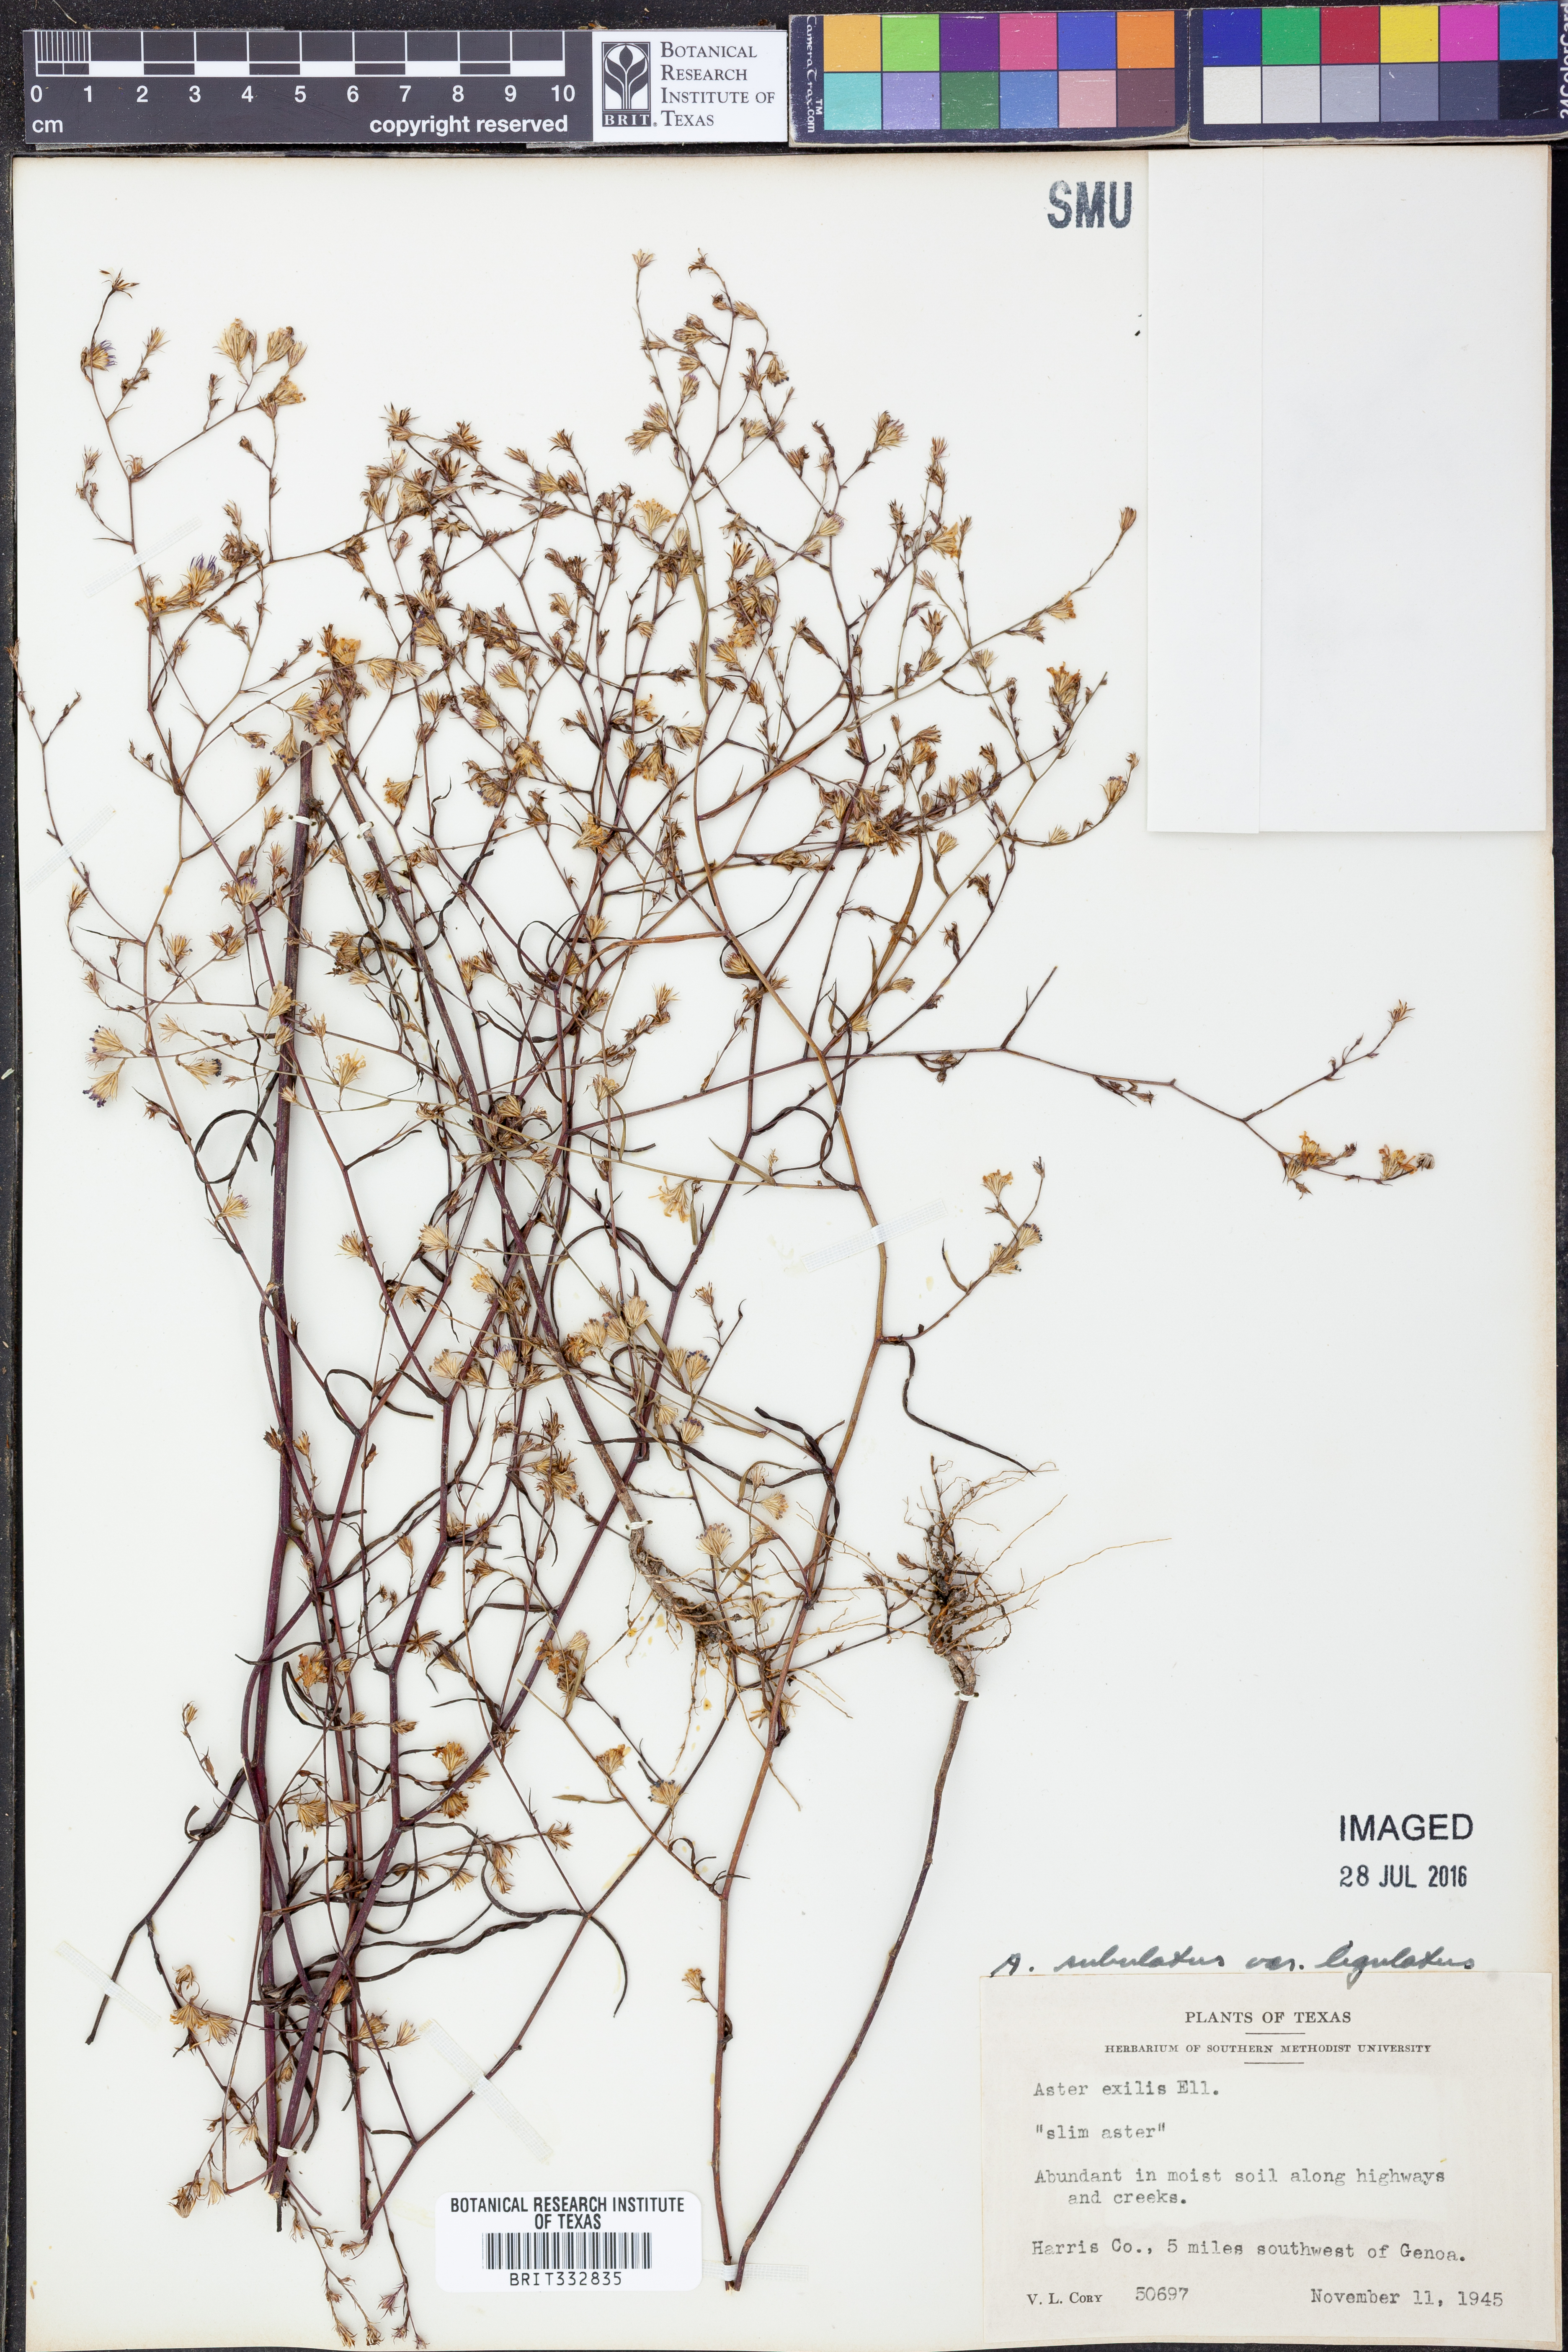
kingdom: Plantae
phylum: Tracheophyta
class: Magnoliopsida
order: Asterales
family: Asteraceae
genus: Symphyotrichum
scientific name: Symphyotrichum divaricatum
